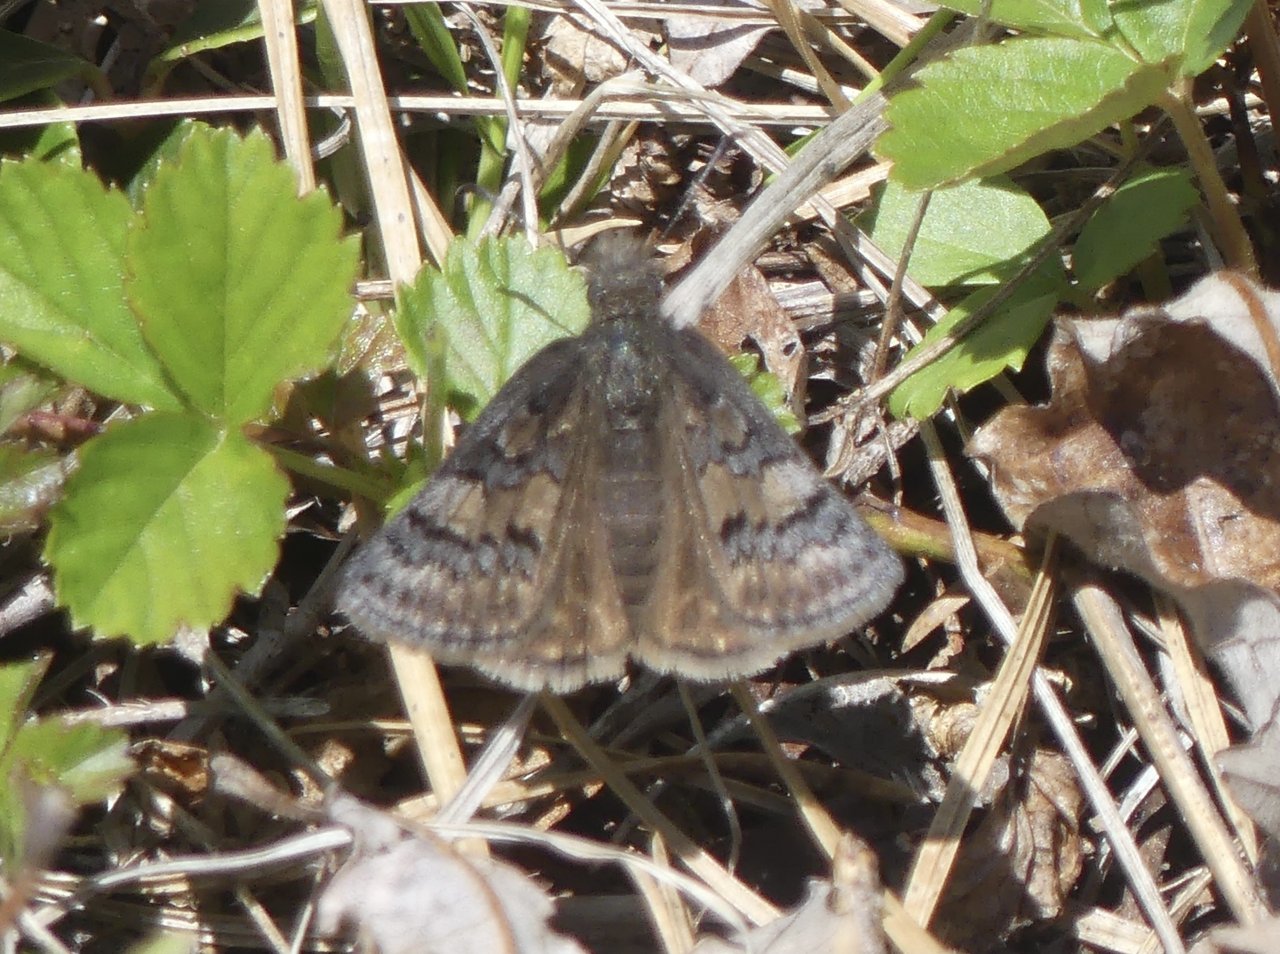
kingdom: Animalia
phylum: Arthropoda
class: Insecta
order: Lepidoptera
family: Hesperiidae
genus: Erynnis
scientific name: Erynnis brizo
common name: Sleepy Duskywing
